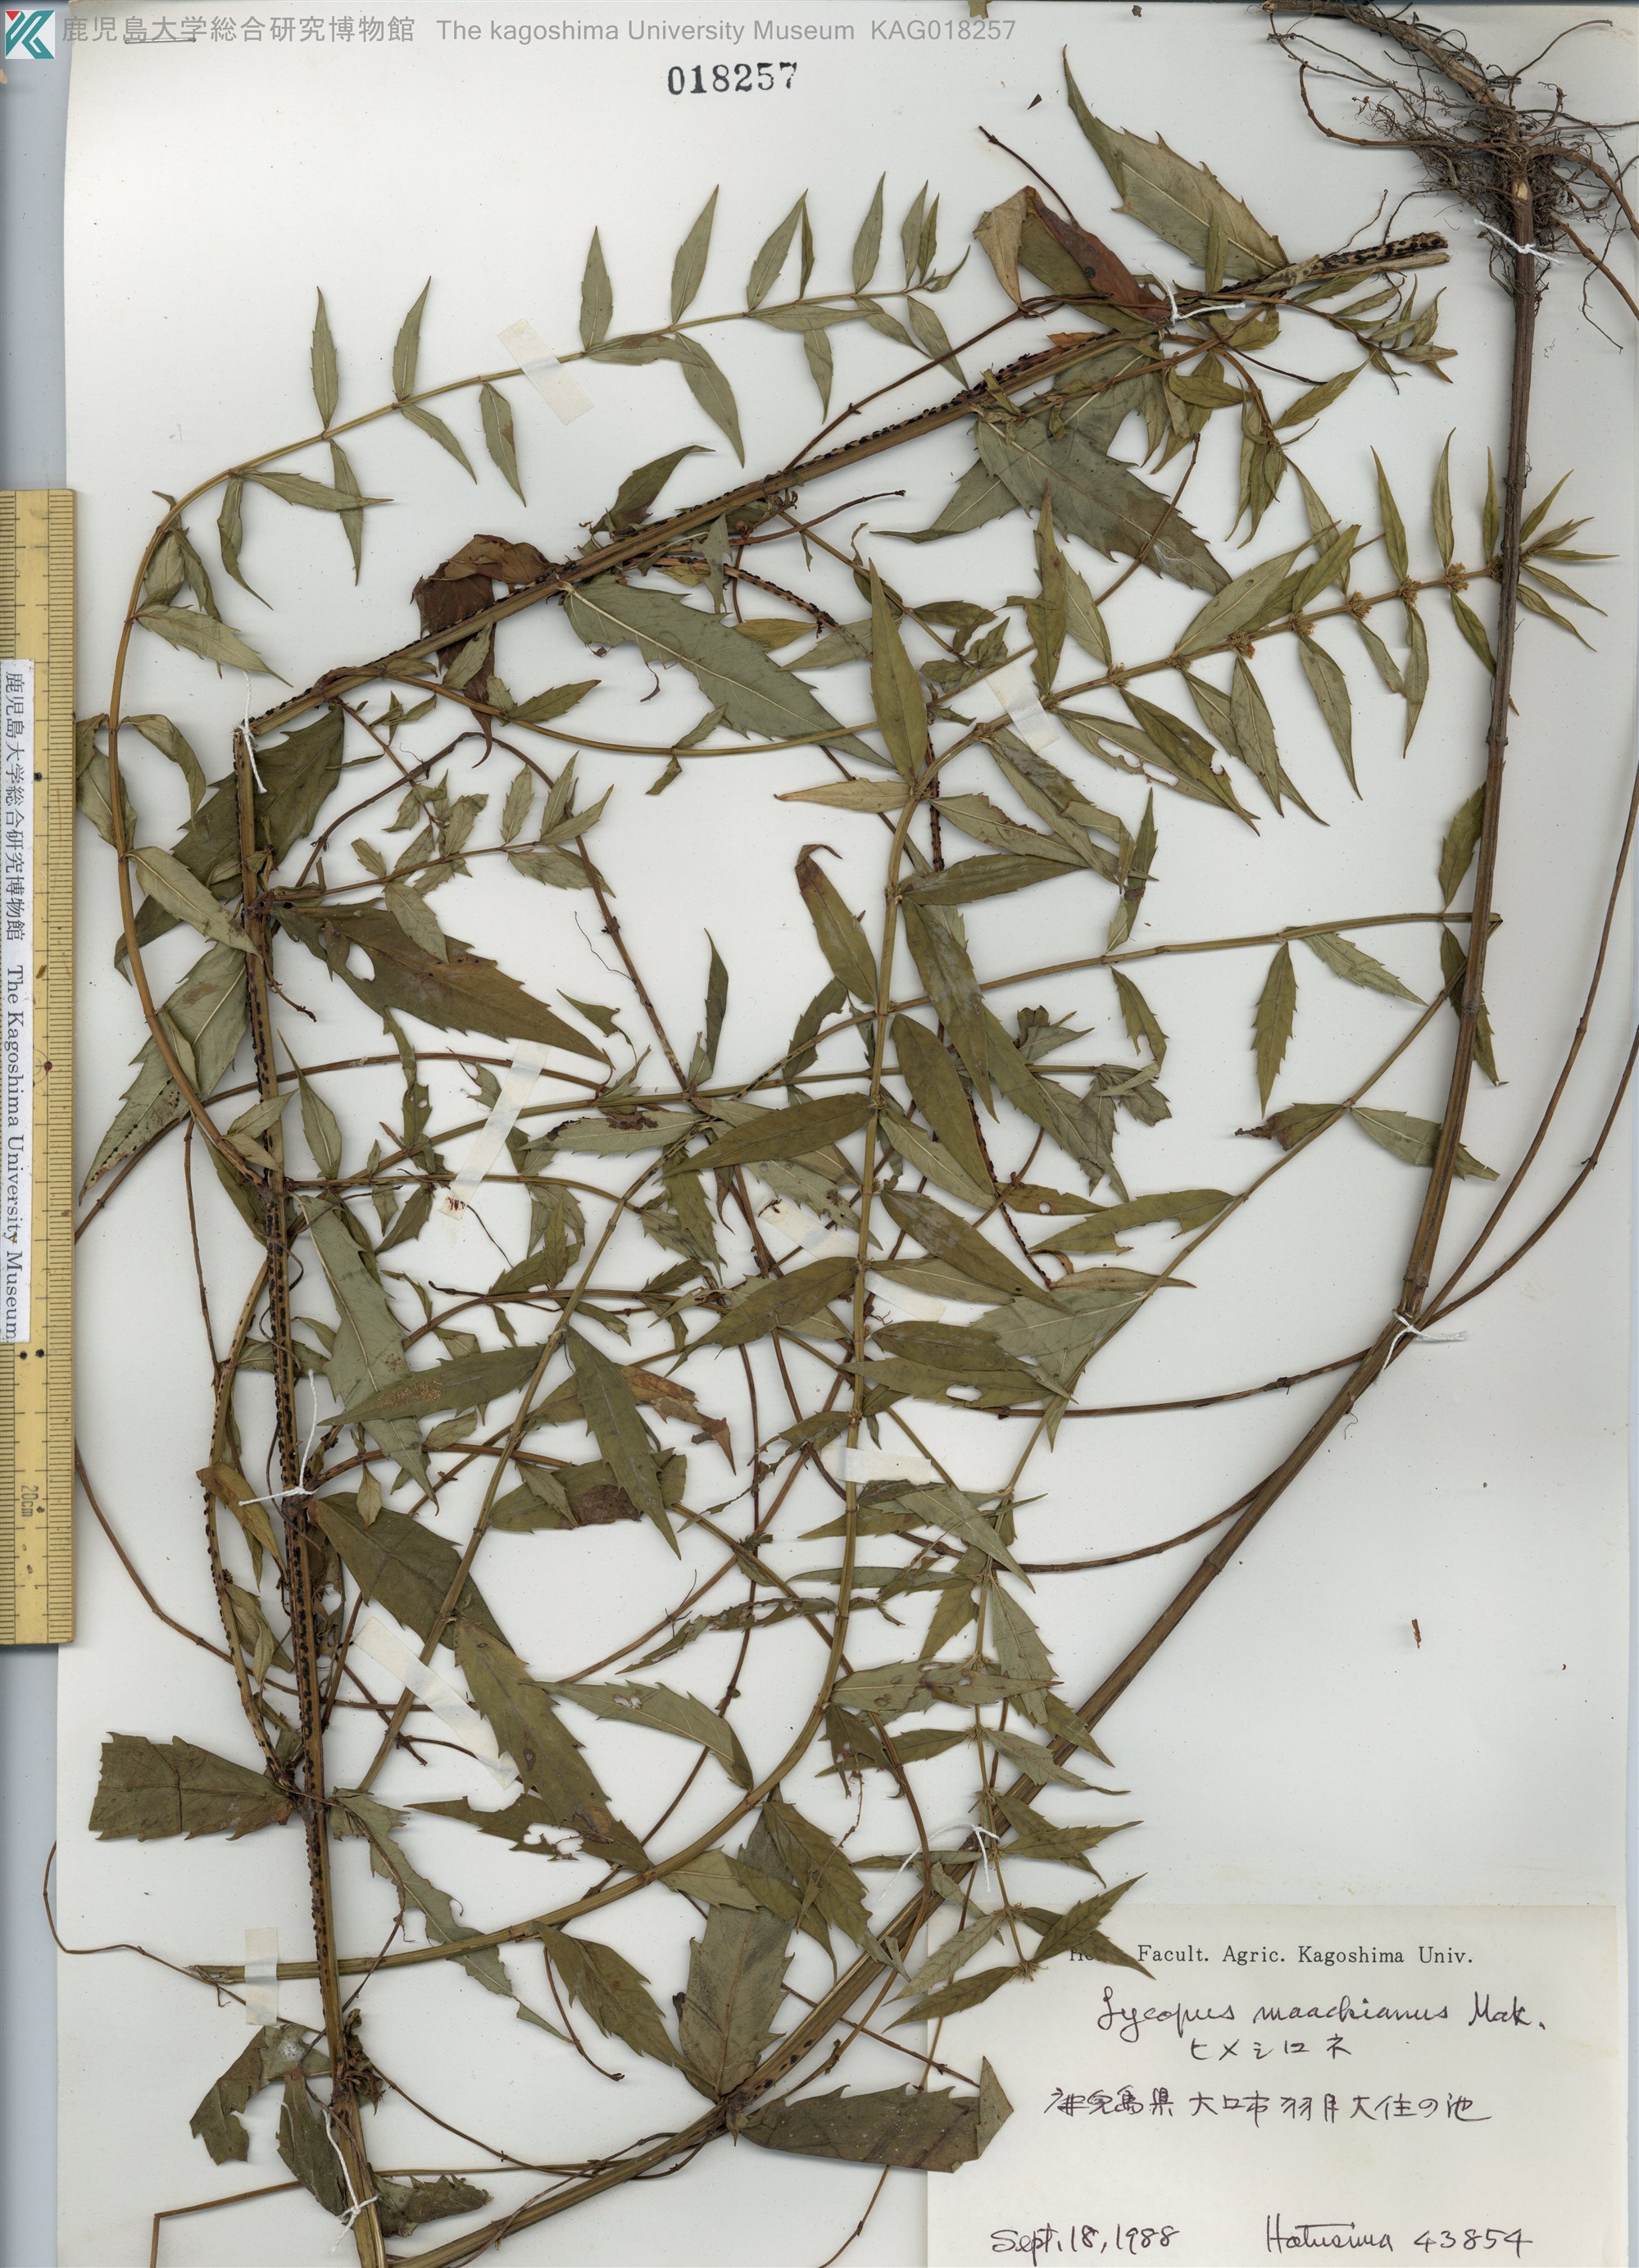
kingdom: Plantae
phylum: Tracheophyta
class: Magnoliopsida
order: Lamiales
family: Lamiaceae
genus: Lycopus
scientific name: Lycopus lucidus
